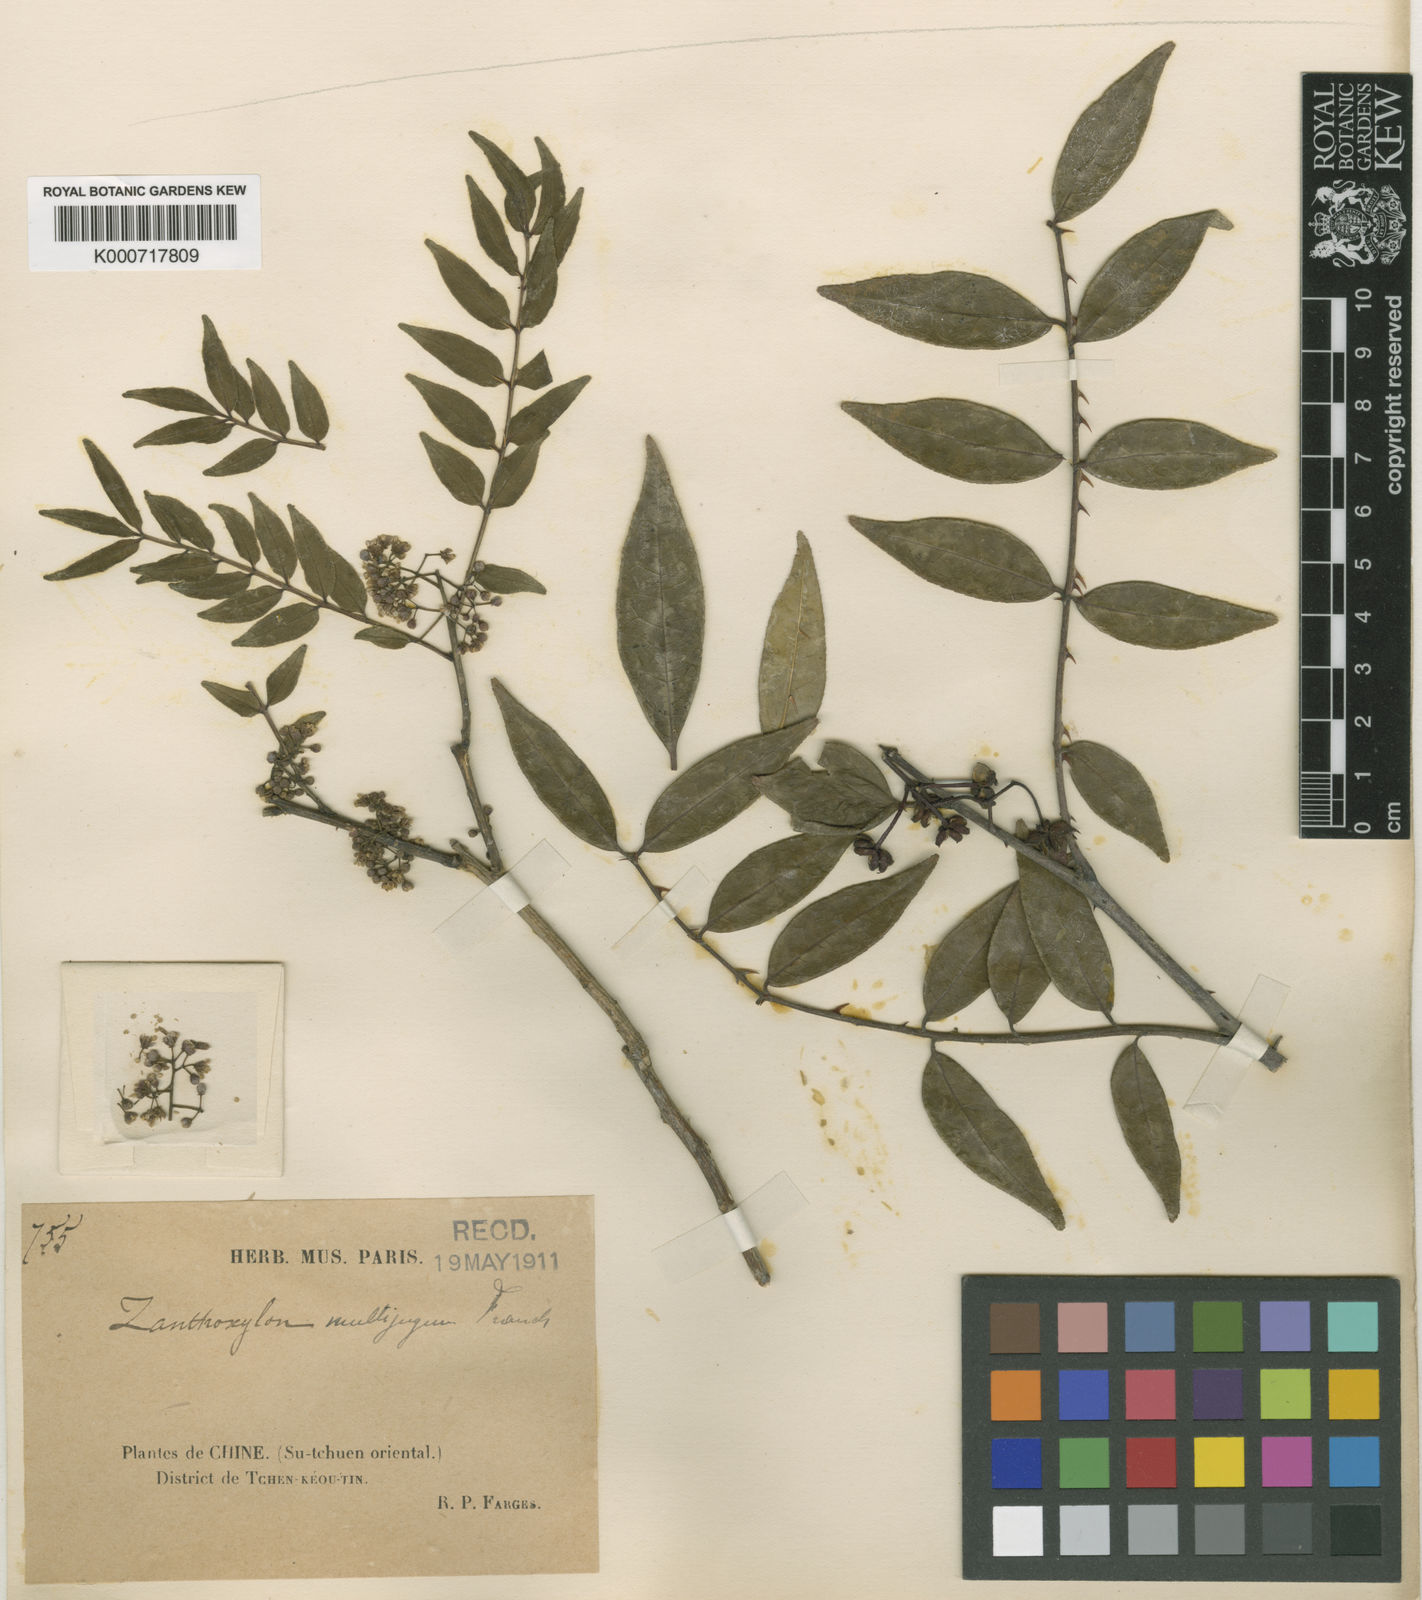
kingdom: Plantae
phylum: Tracheophyta
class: Magnoliopsida
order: Sapindales
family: Rutaceae
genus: Zanthoxylum
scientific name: Zanthoxylum multijugum
